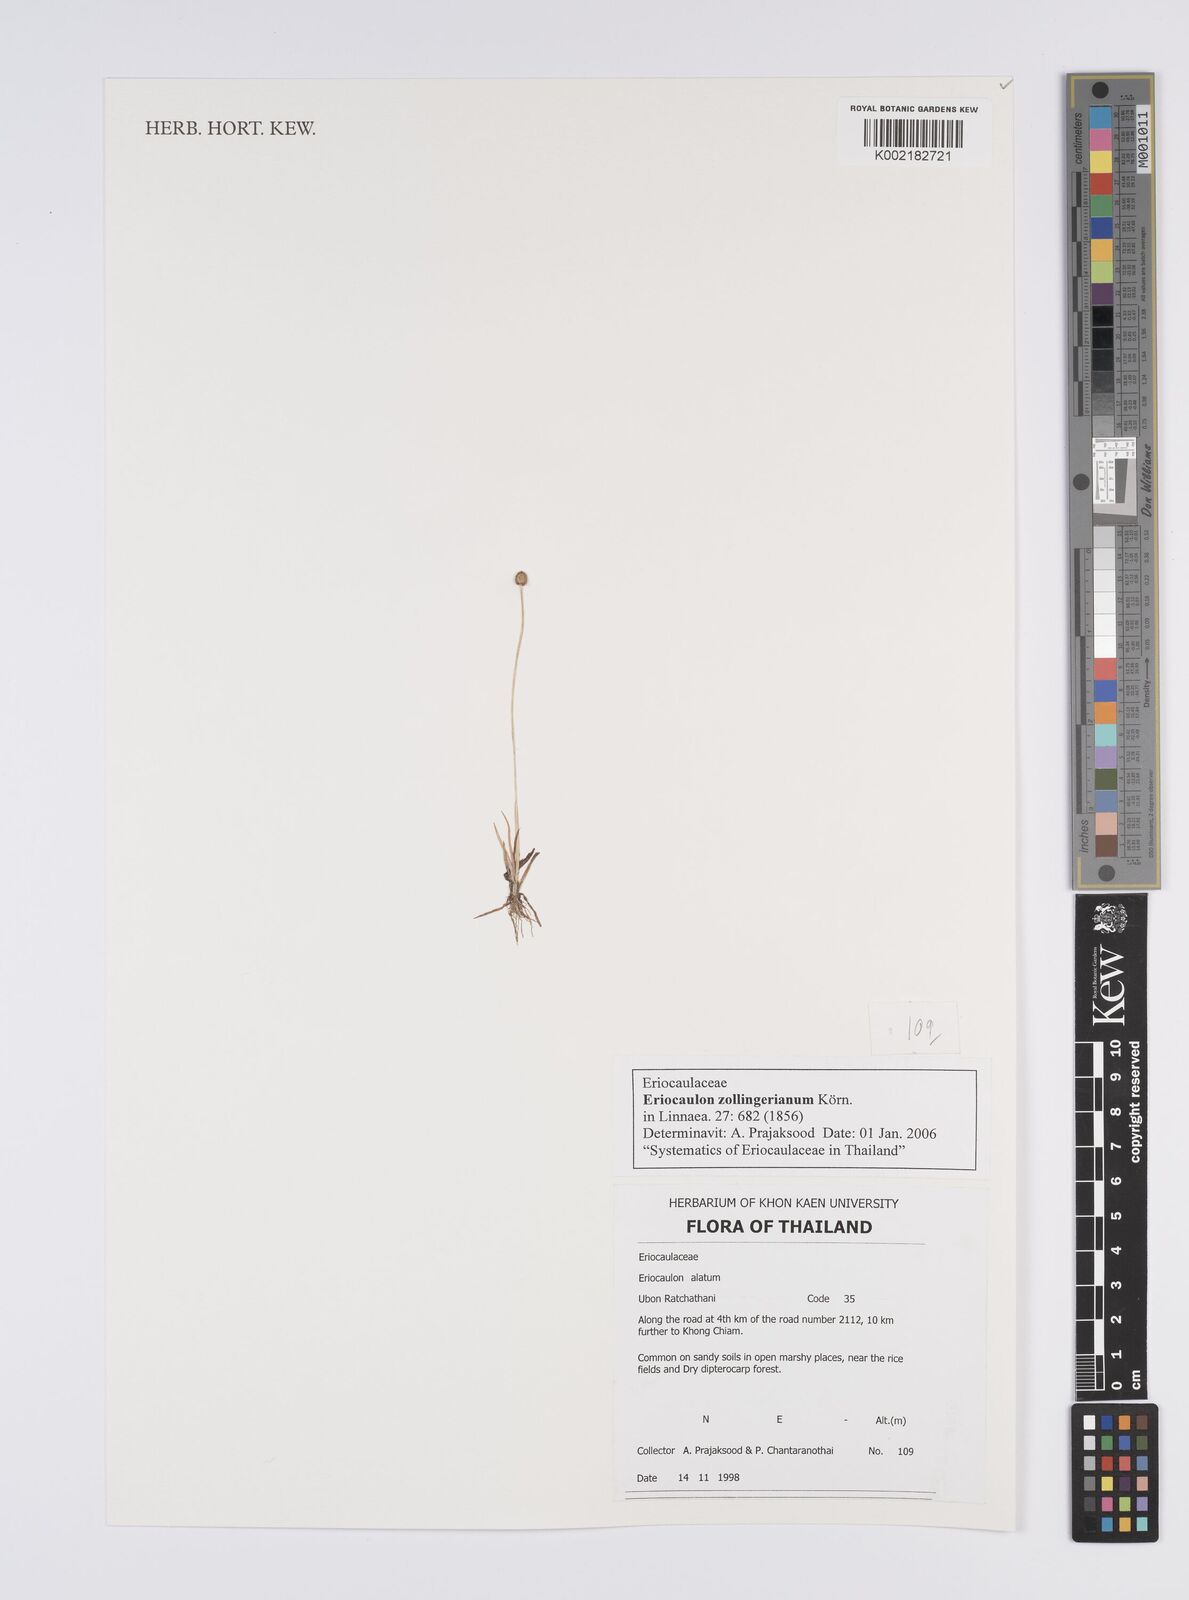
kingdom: Plantae
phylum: Tracheophyta
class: Liliopsida
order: Poales
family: Eriocaulaceae
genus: Eriocaulon
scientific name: Eriocaulon zollingerianum
